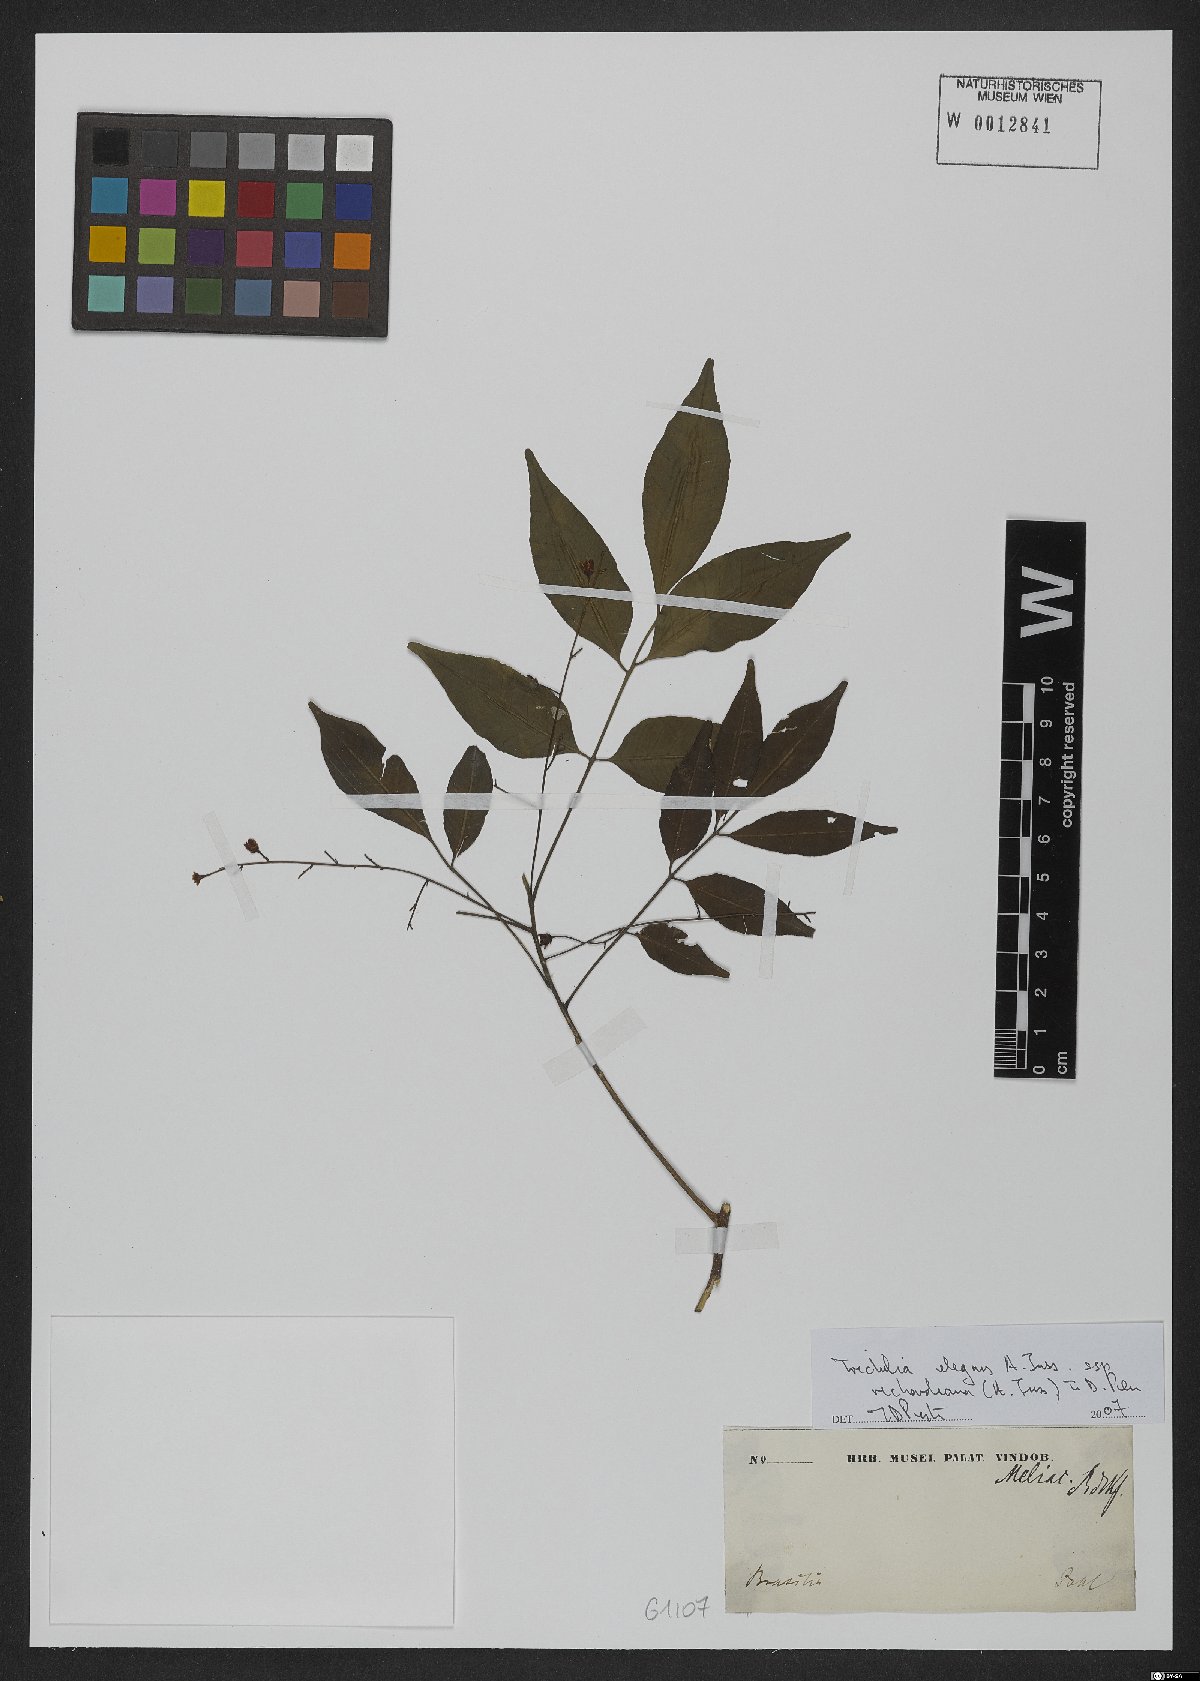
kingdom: Plantae
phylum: Tracheophyta
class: Magnoliopsida
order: Sapindales
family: Meliaceae
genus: Trichilia
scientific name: Trichilia elegans
